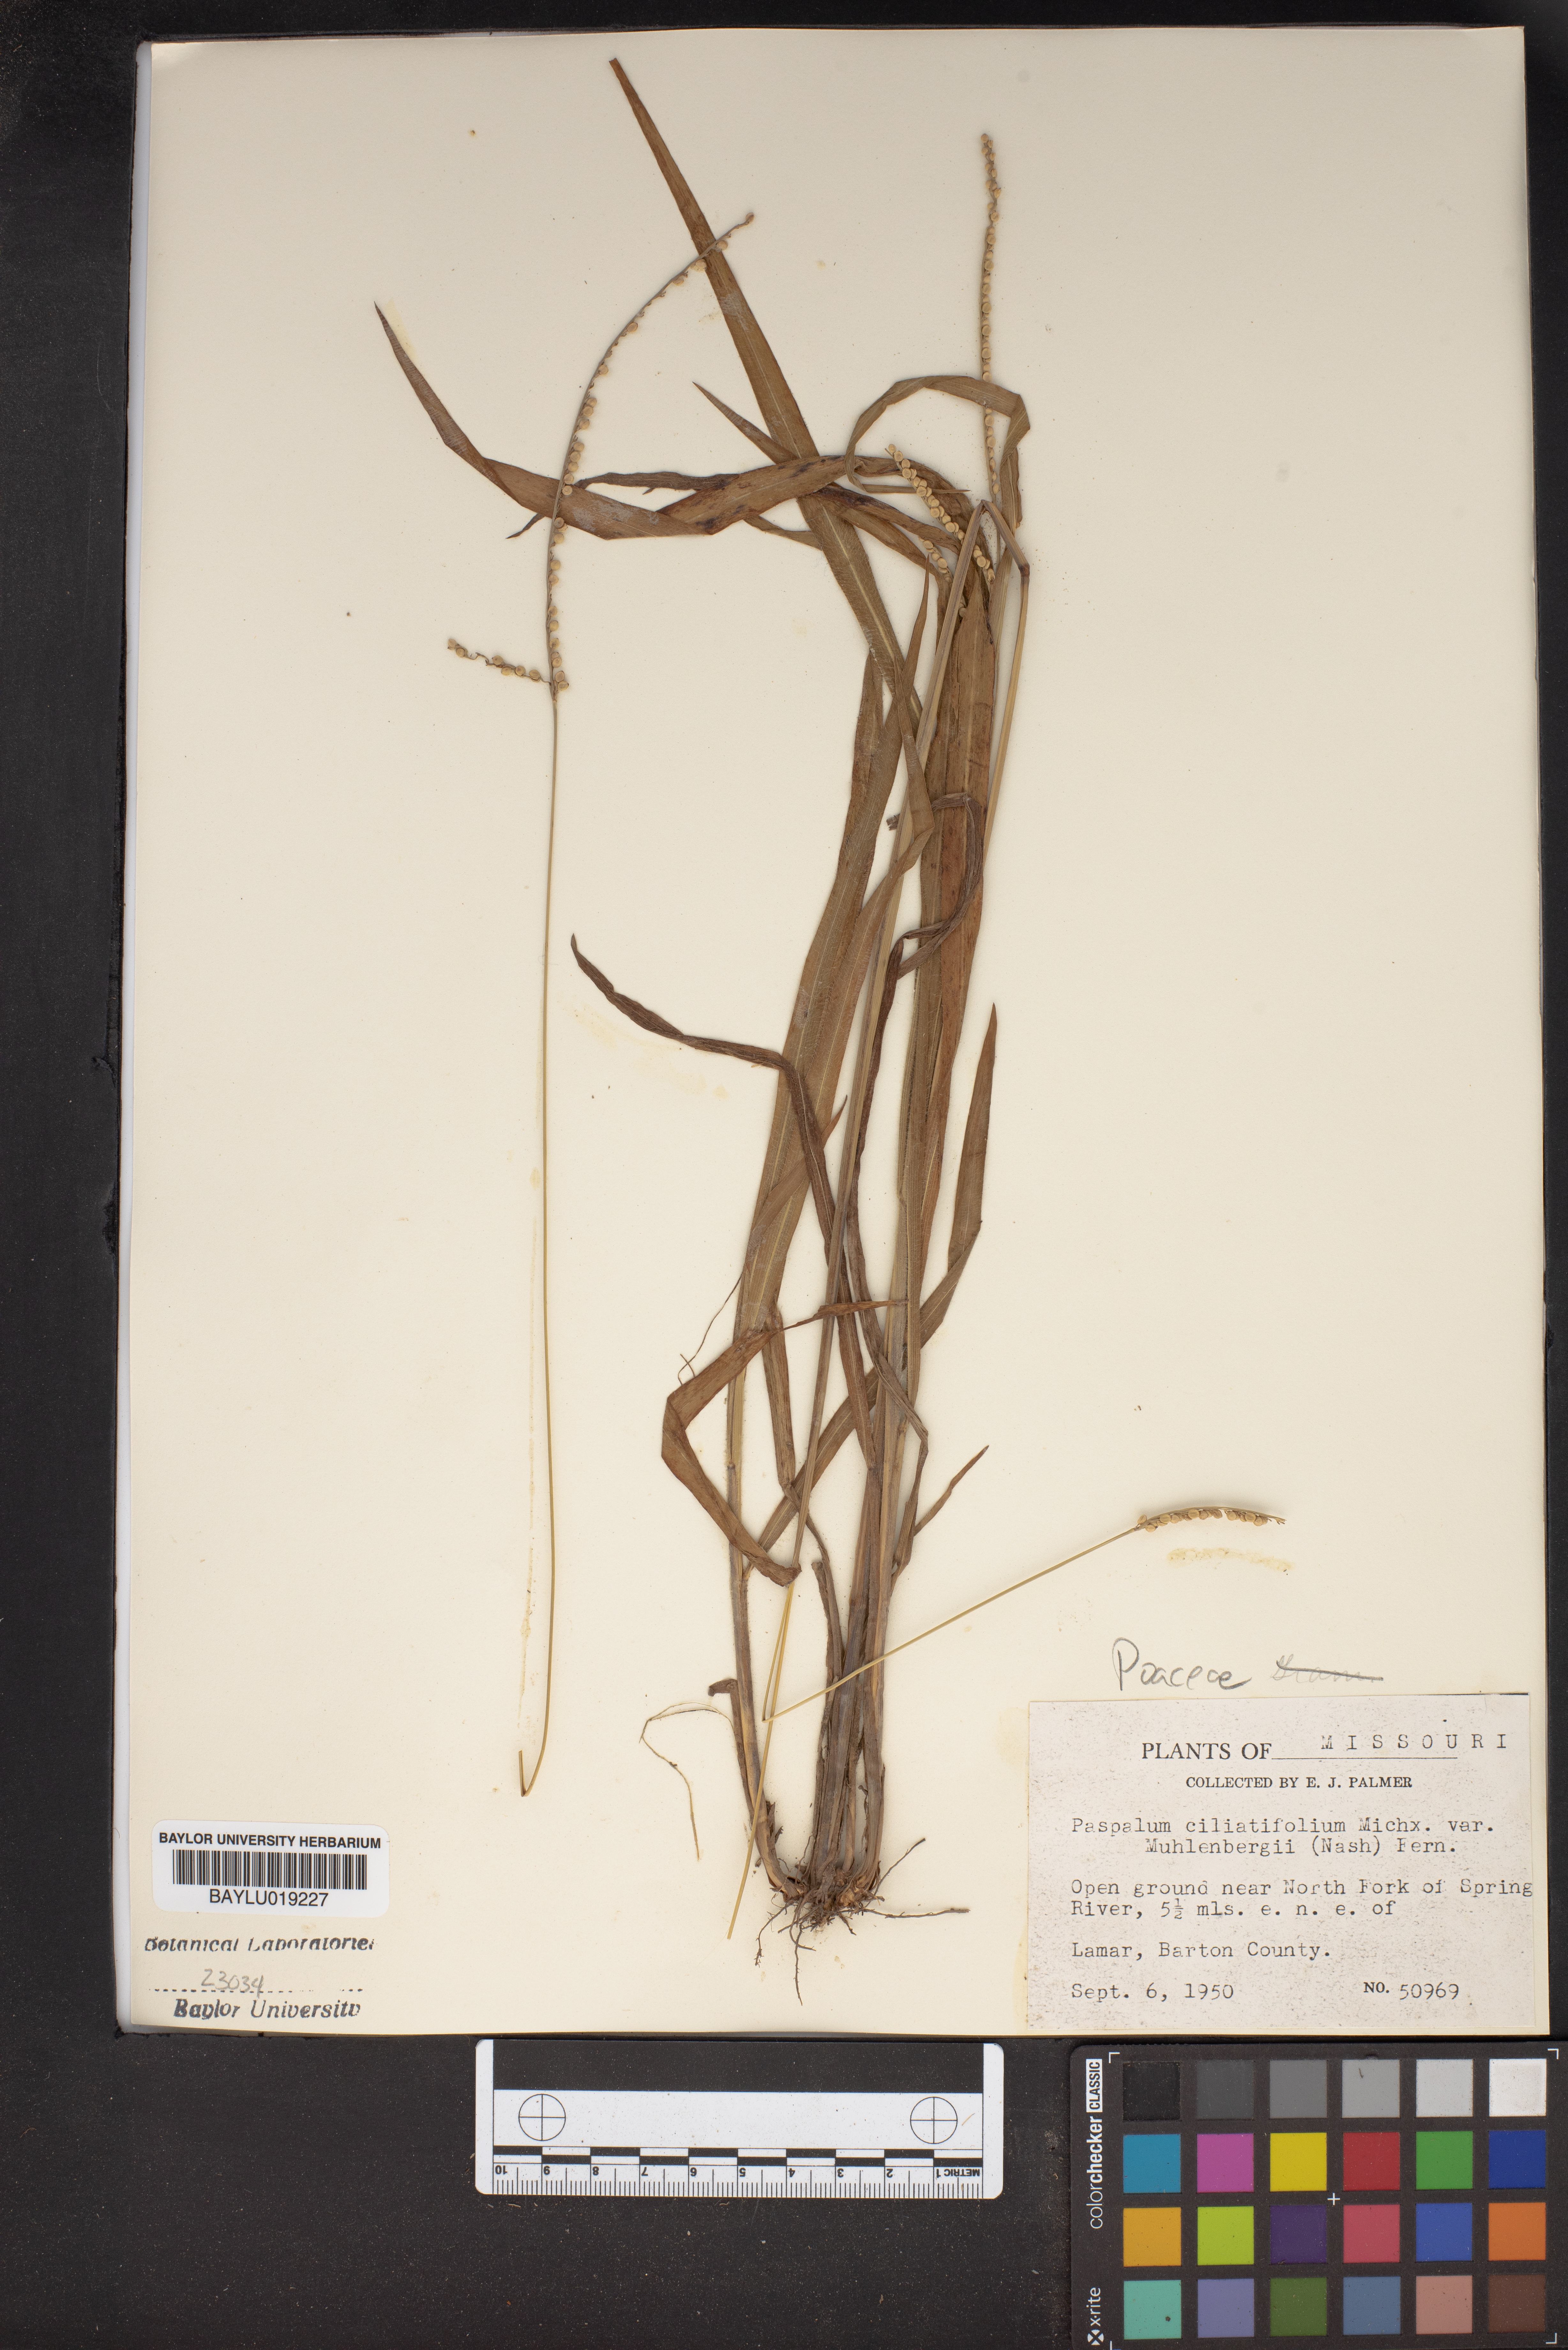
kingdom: Plantae
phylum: Tracheophyta
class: Liliopsida
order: Poales
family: Poaceae
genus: Paspalum
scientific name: Paspalum setaceum
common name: Slender paspalum
